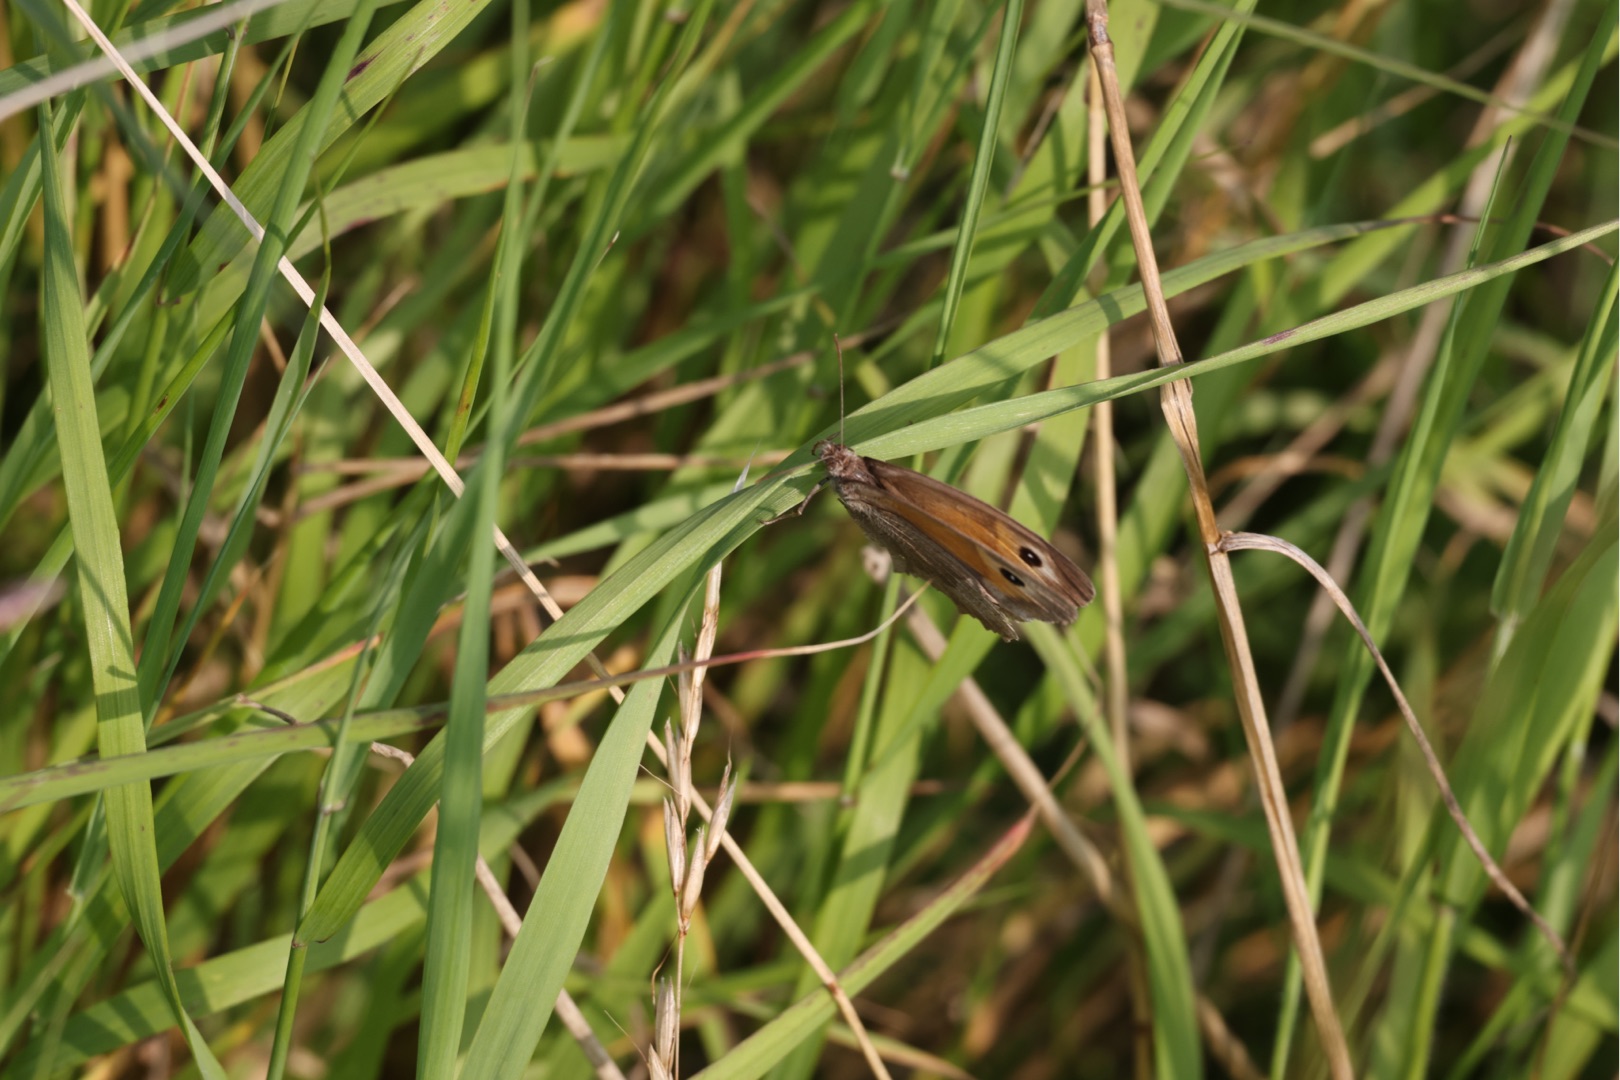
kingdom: Animalia
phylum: Arthropoda
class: Insecta
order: Lepidoptera
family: Nymphalidae
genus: Maniola
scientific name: Maniola jurtina
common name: Græsrandøje
